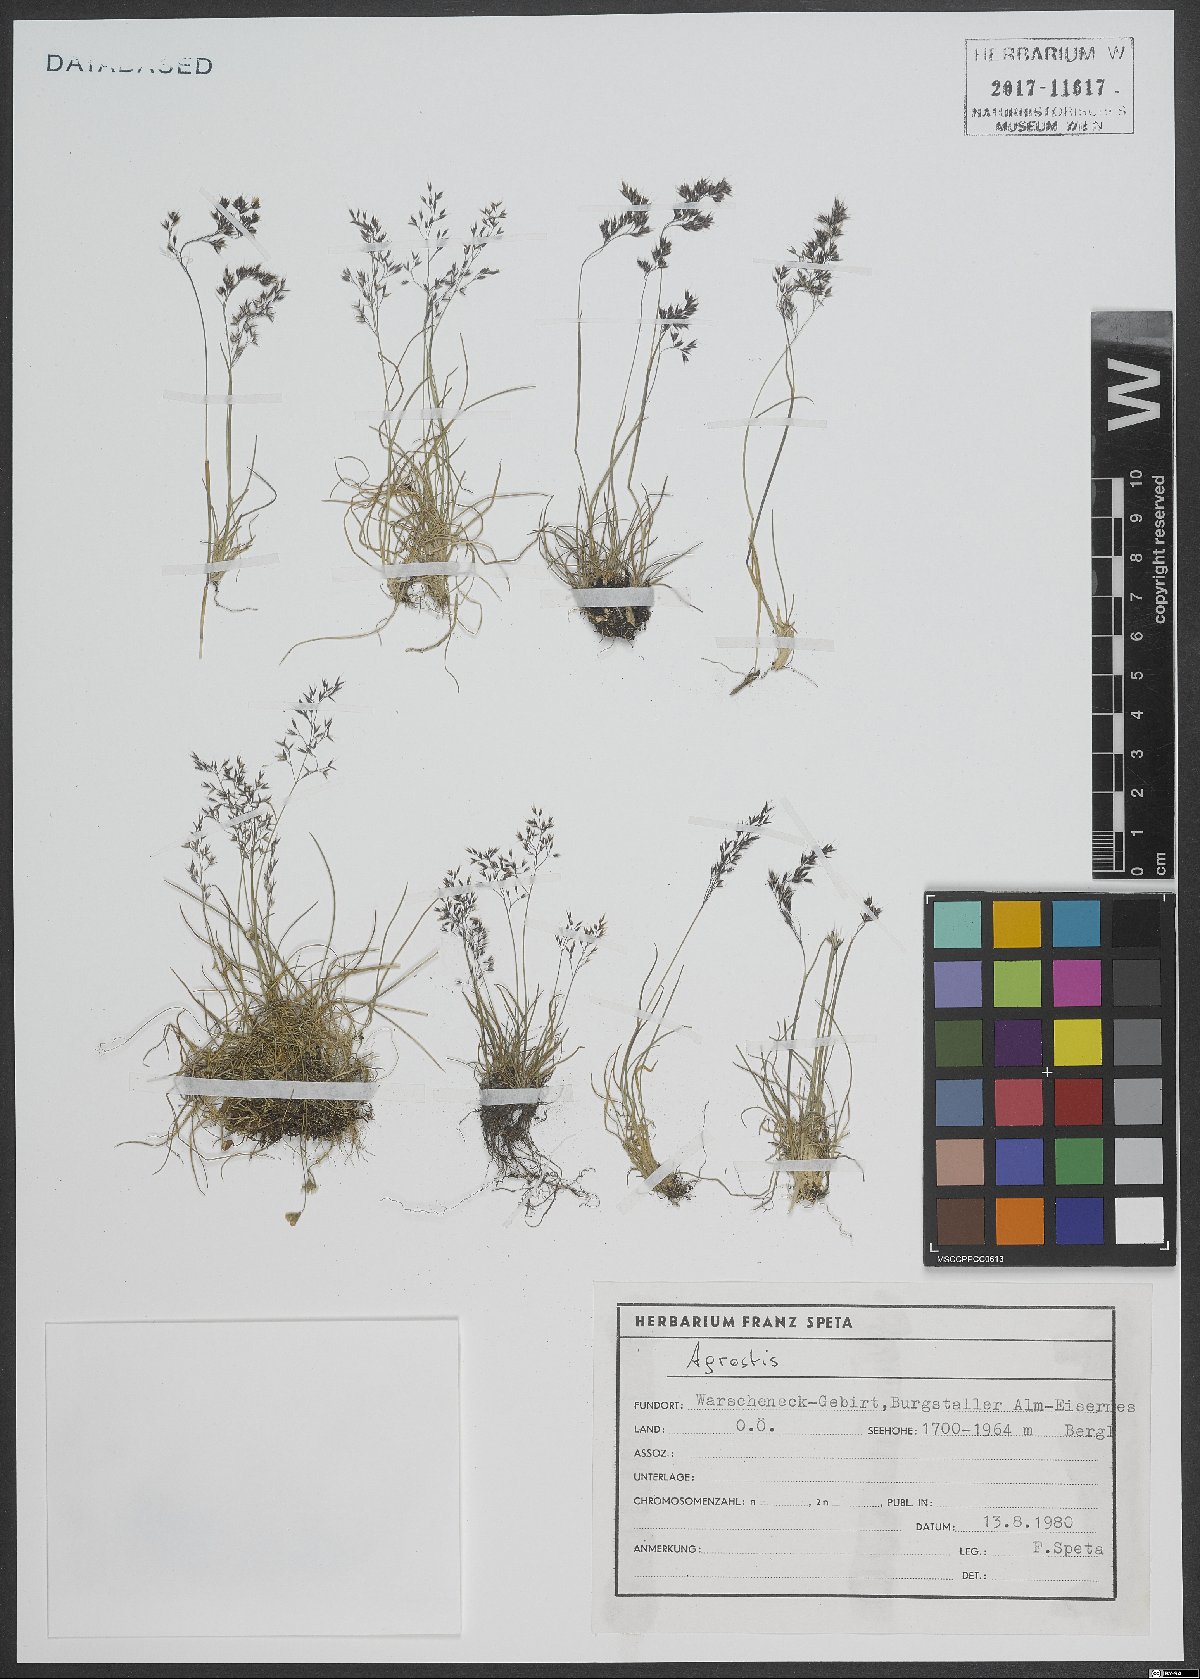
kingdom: Plantae
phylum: Tracheophyta
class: Liliopsida
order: Poales
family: Poaceae
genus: Agrostis
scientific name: Agrostis
